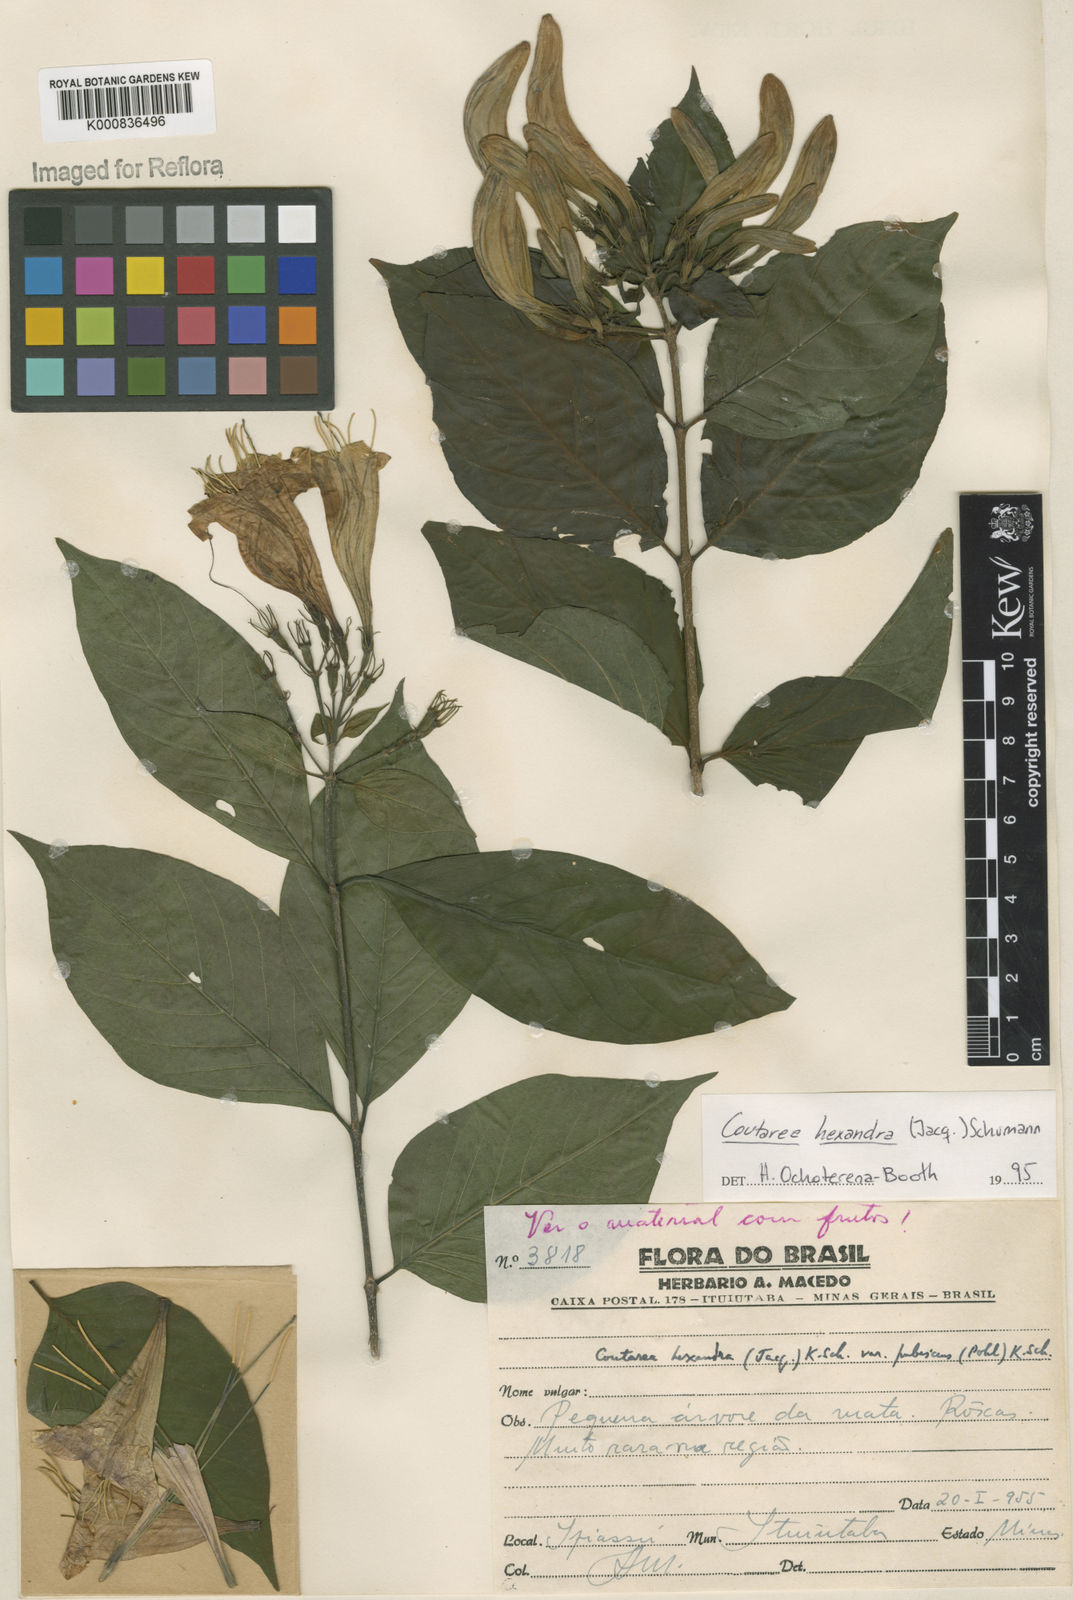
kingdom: Plantae
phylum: Tracheophyta
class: Magnoliopsida
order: Gentianales
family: Rubiaceae
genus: Coutarea
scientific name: Coutarea hexandra
